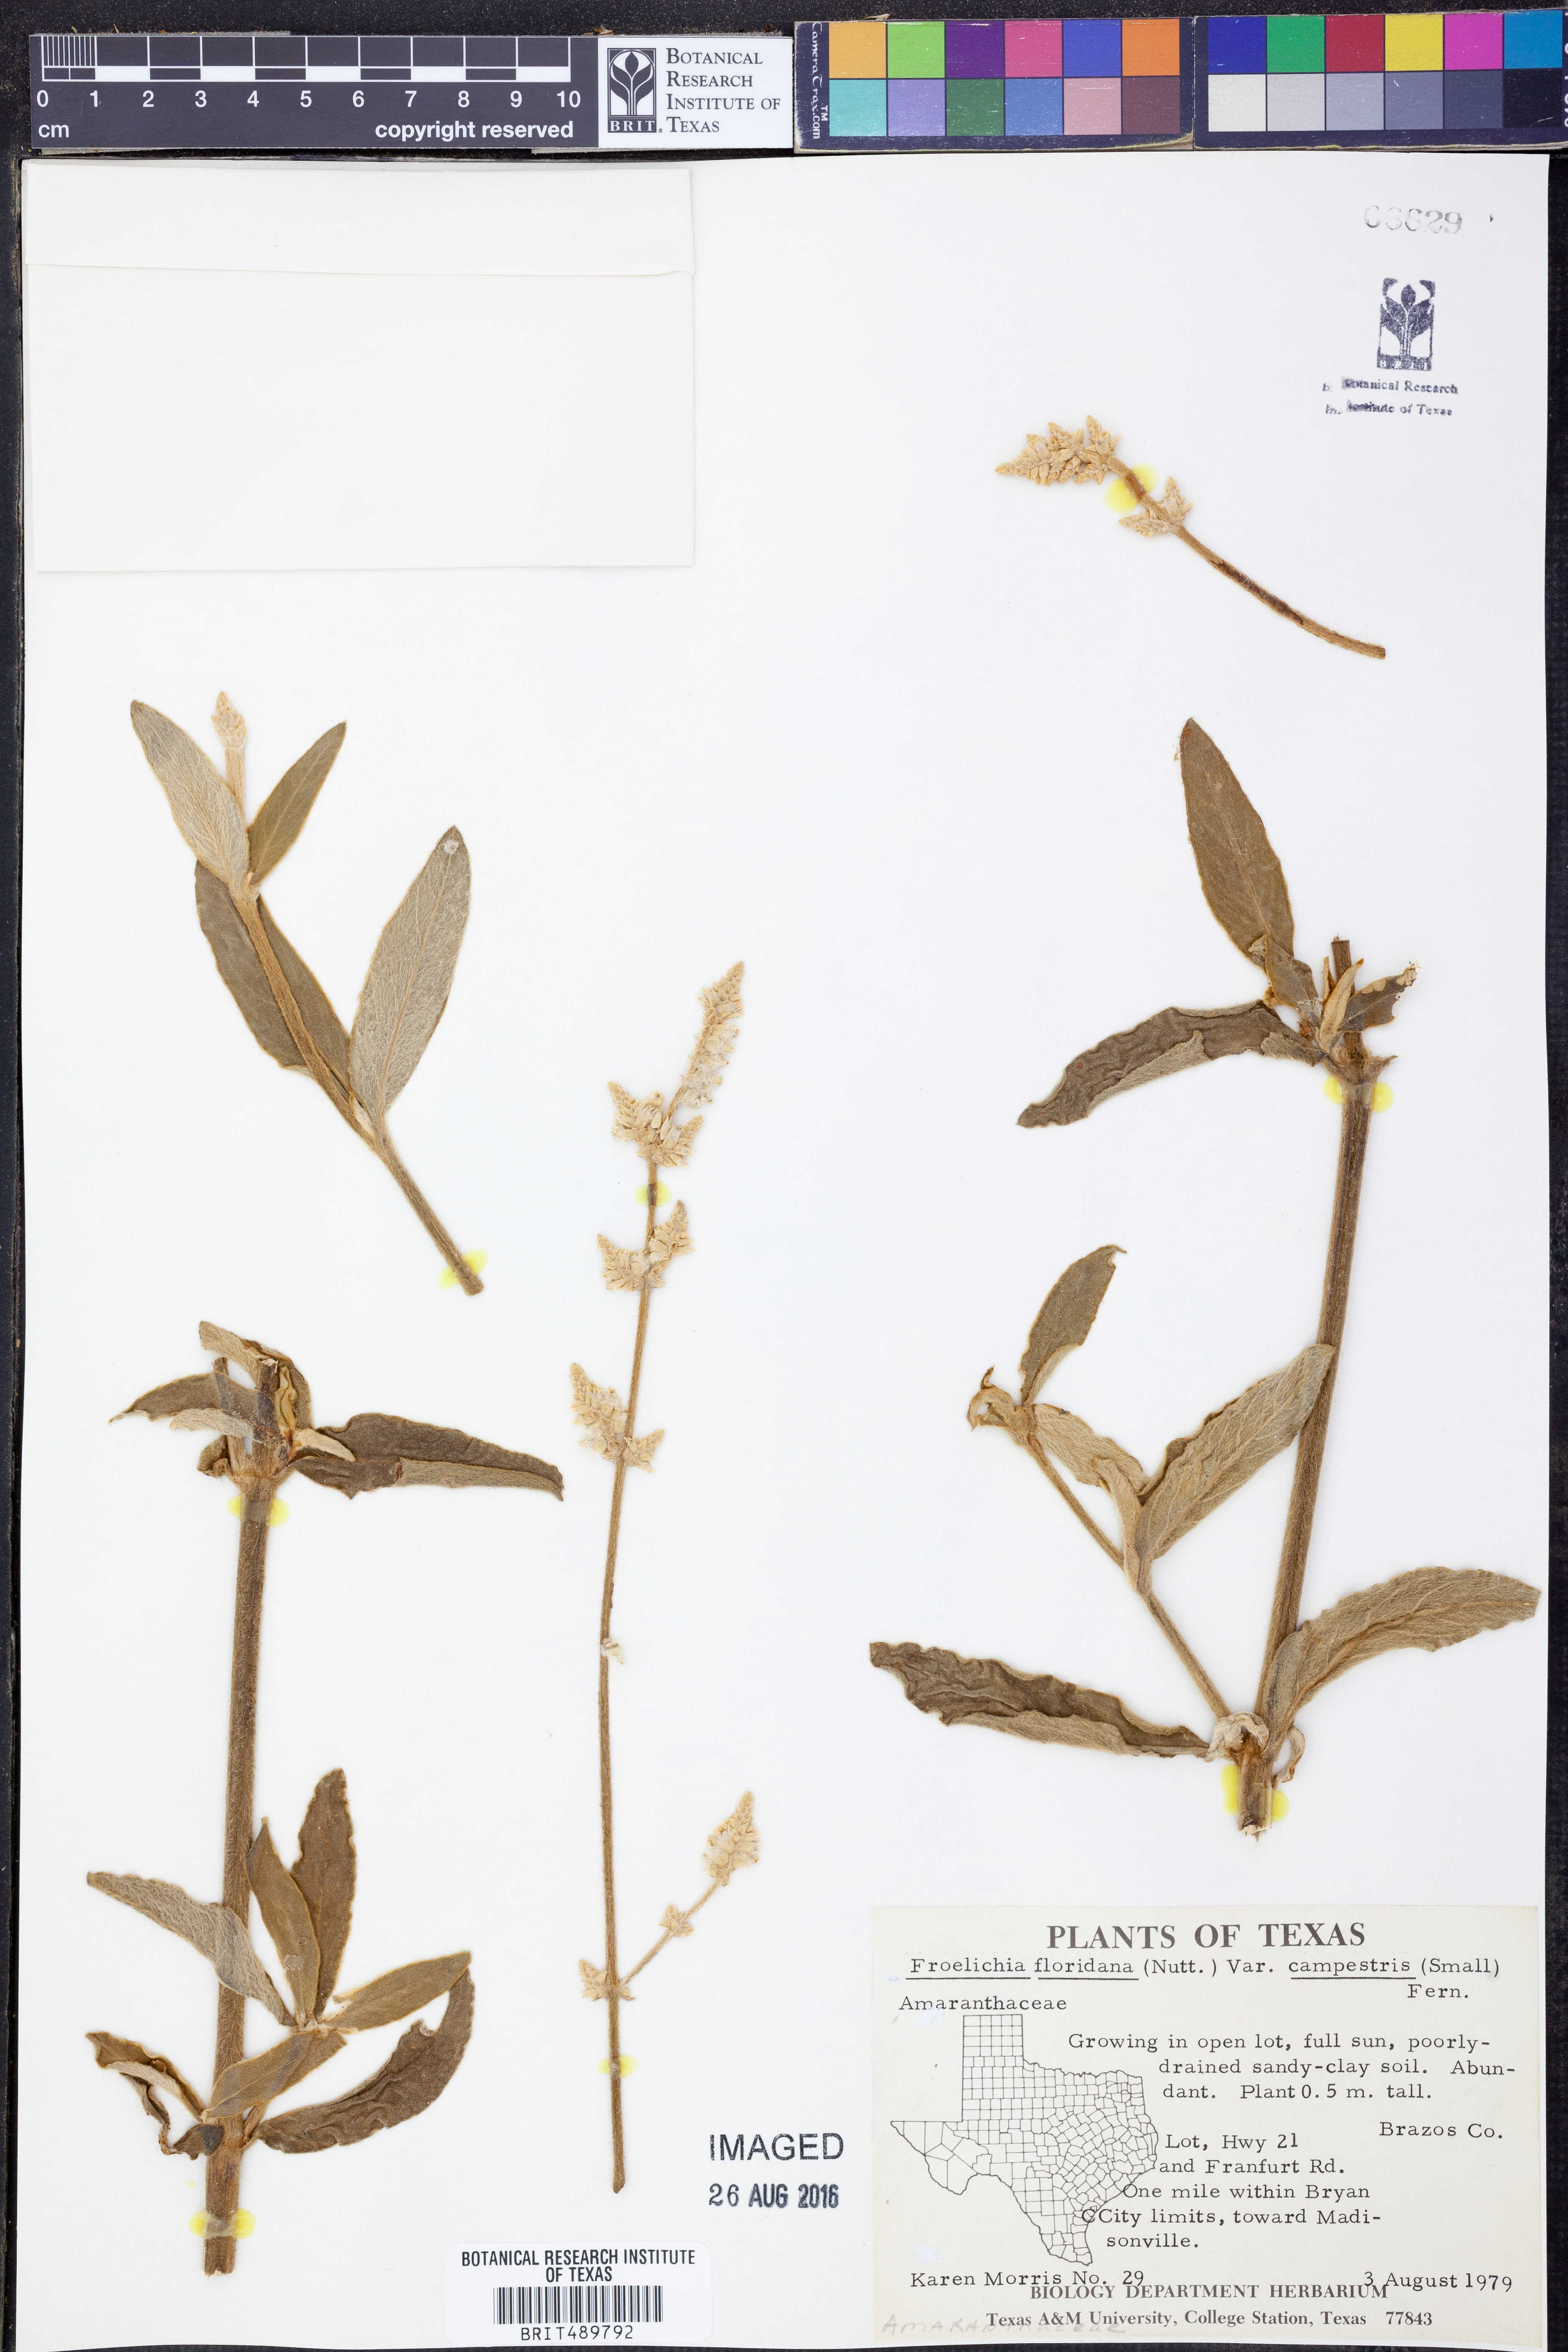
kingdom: Plantae
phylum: Tracheophyta
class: Magnoliopsida
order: Caryophyllales
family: Amaranthaceae
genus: Froelichia
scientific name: Froelichia floridana
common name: Florida snake-cotton
